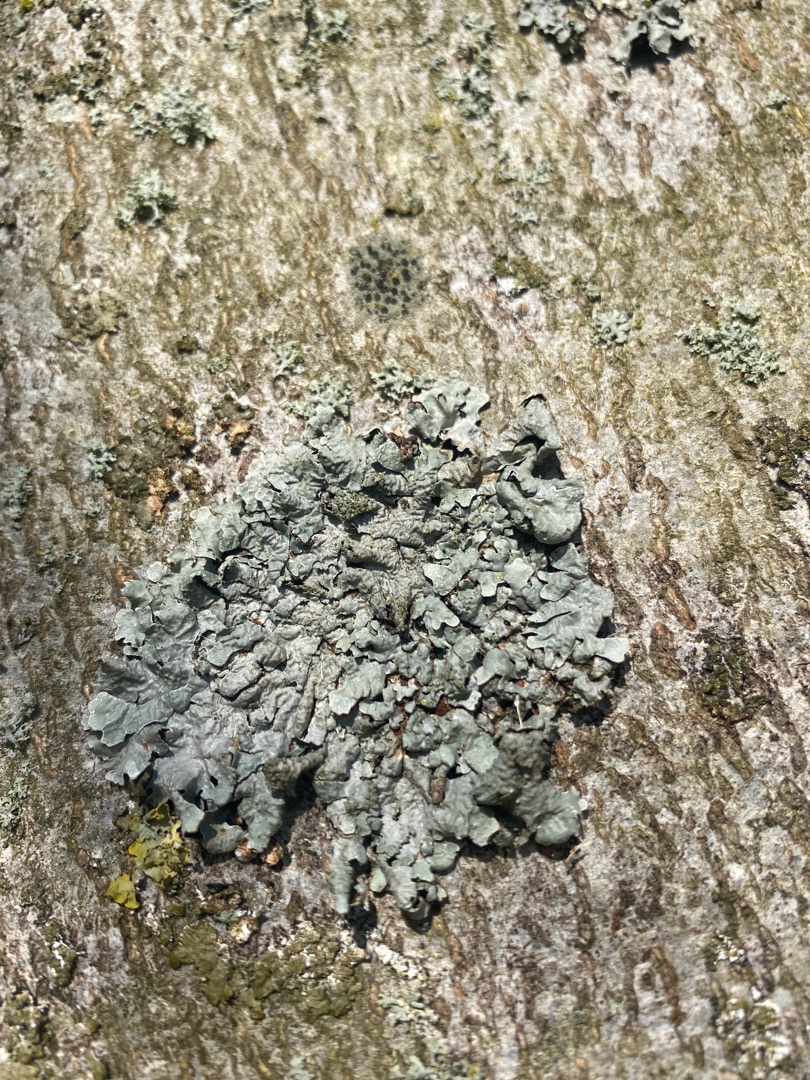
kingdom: Fungi
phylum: Ascomycota
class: Lecanoromycetes
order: Lecanorales
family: Parmeliaceae
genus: Parmelia
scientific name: Parmelia sulcata
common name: Rynket skållav
